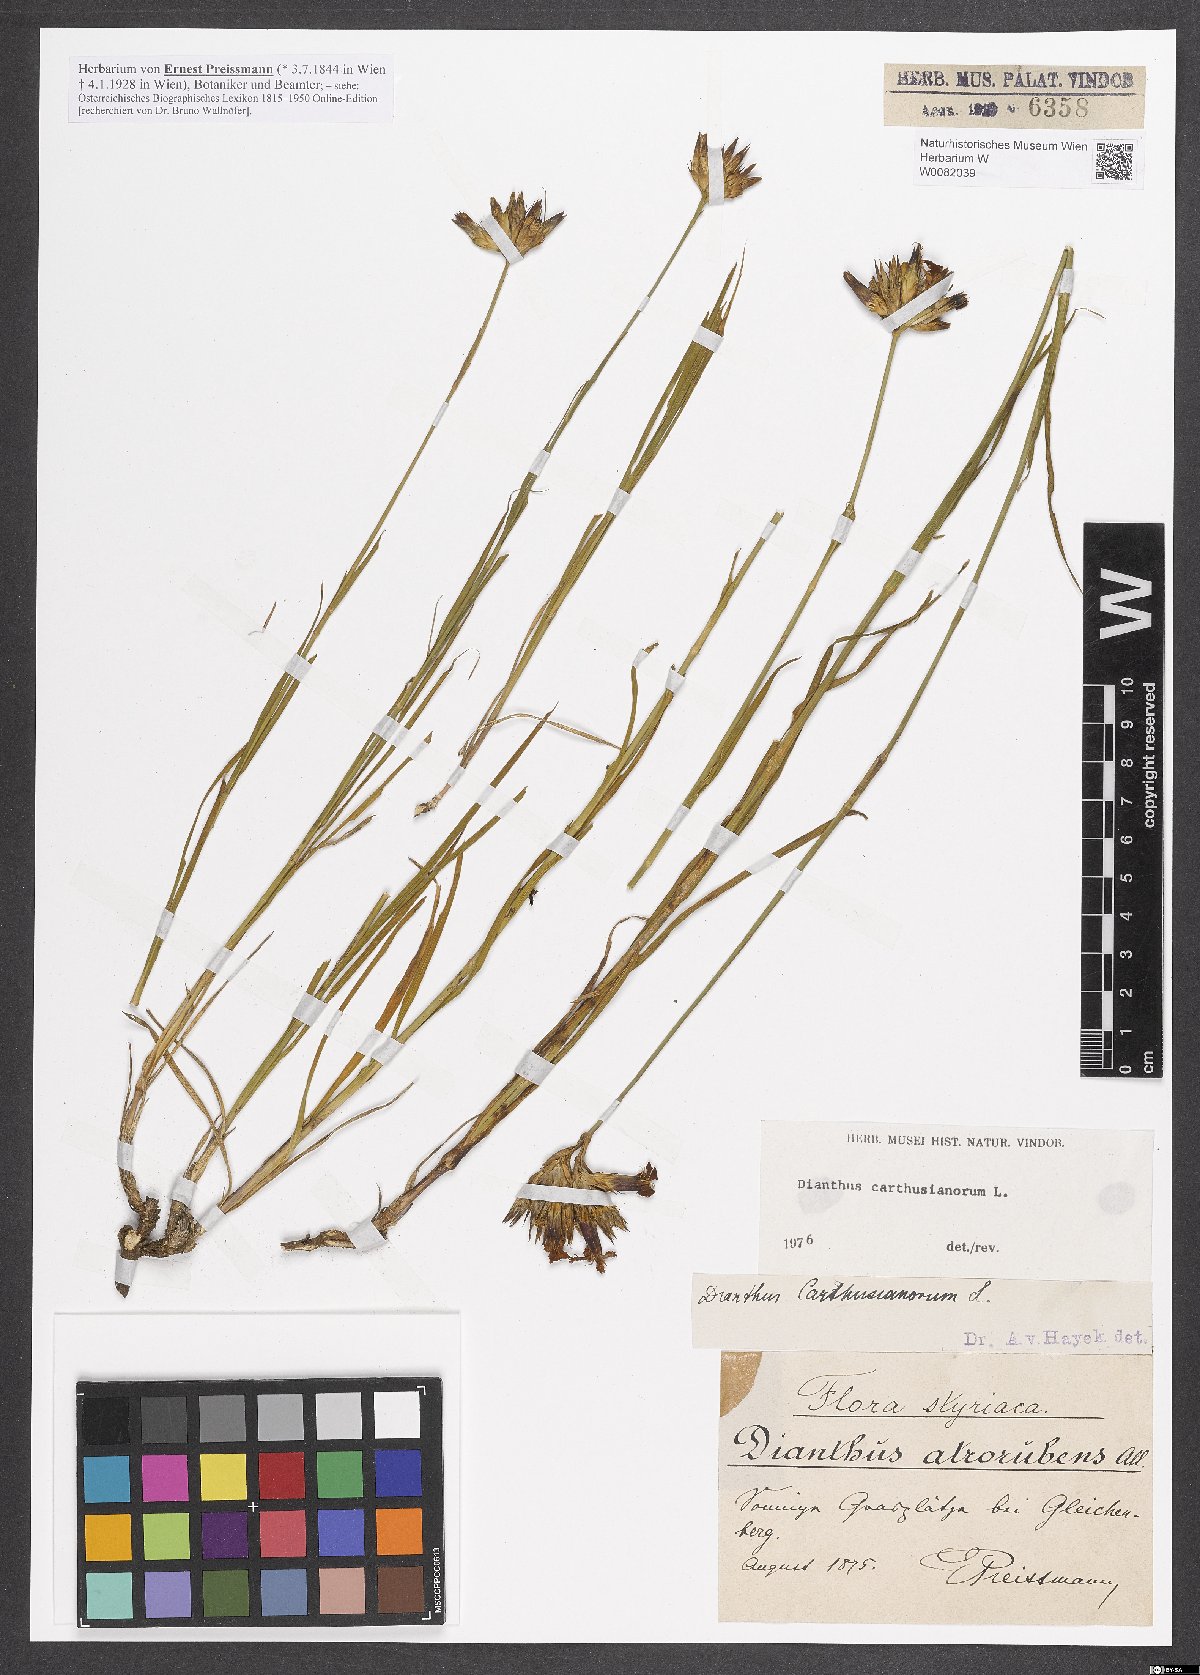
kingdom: Plantae
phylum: Tracheophyta
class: Magnoliopsida
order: Caryophyllales
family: Caryophyllaceae
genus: Dianthus
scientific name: Dianthus carthusianorum
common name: Carthusian pink
